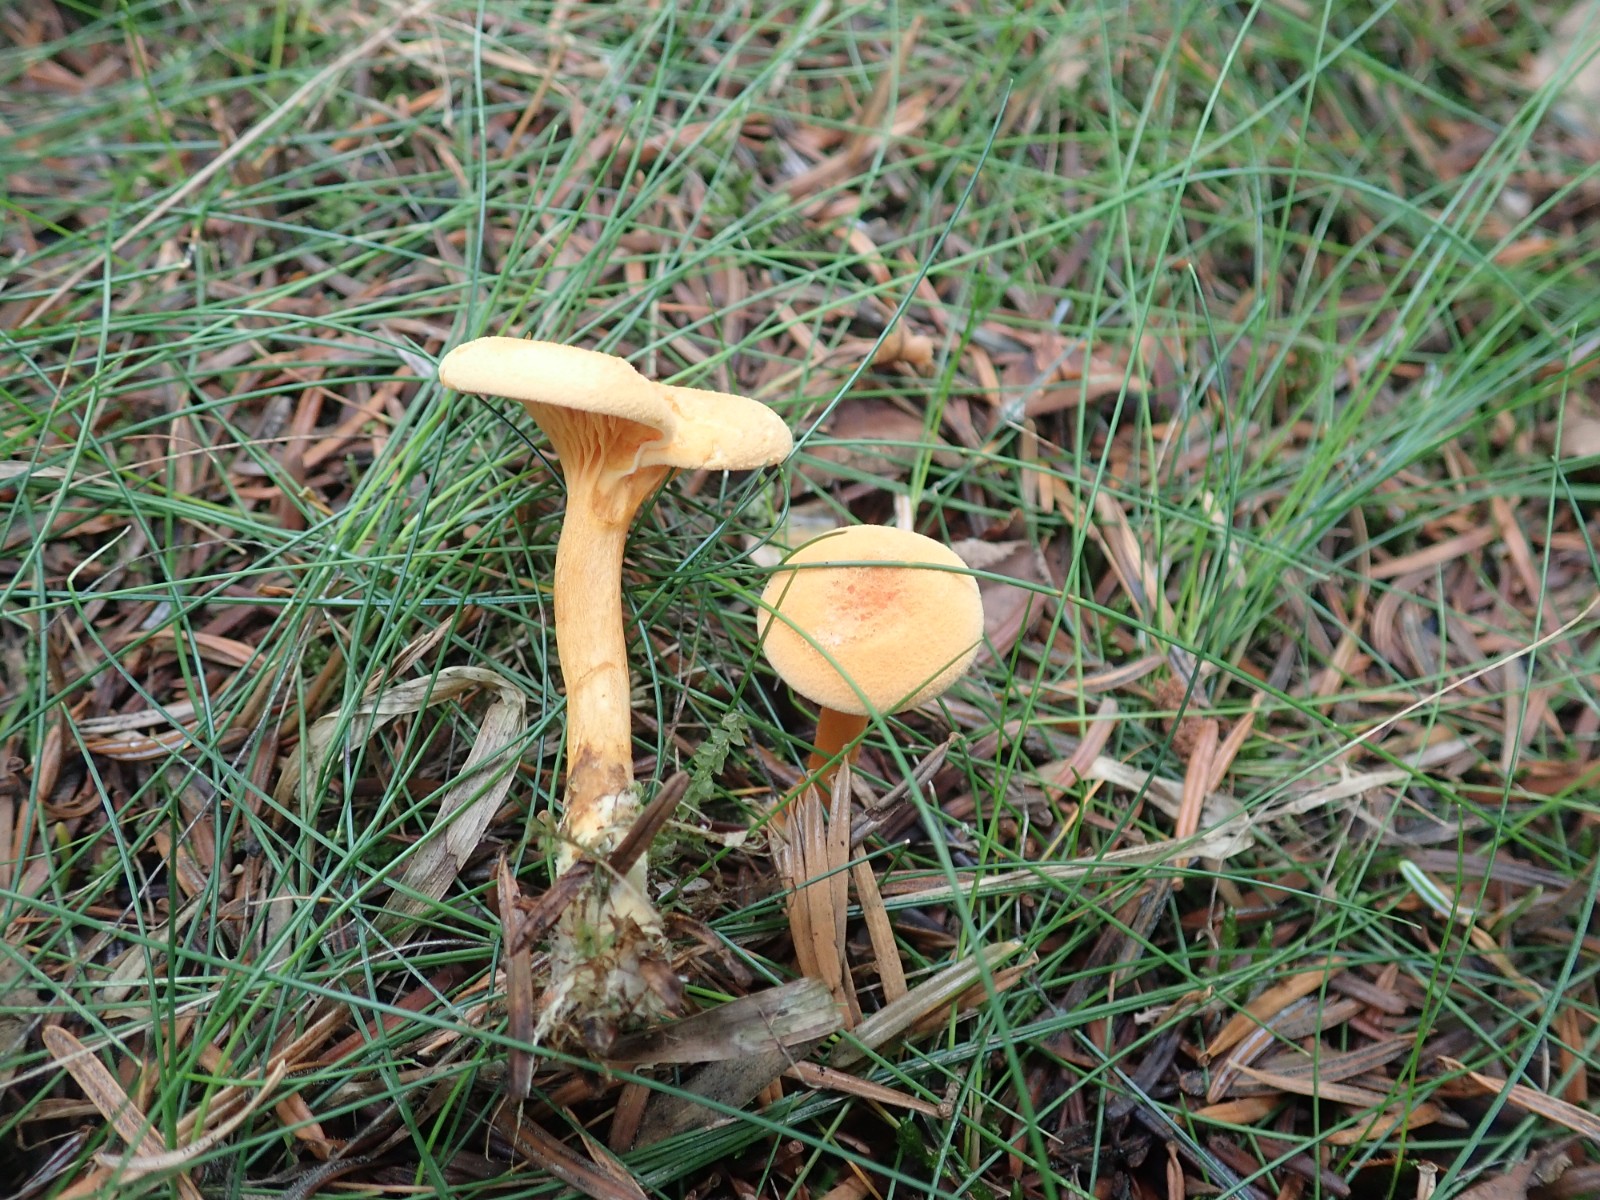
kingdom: Fungi
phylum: Basidiomycota
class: Agaricomycetes
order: Boletales
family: Hygrophoropsidaceae
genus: Hygrophoropsis
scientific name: Hygrophoropsis aurantiaca
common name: almindelig orangekantarel
